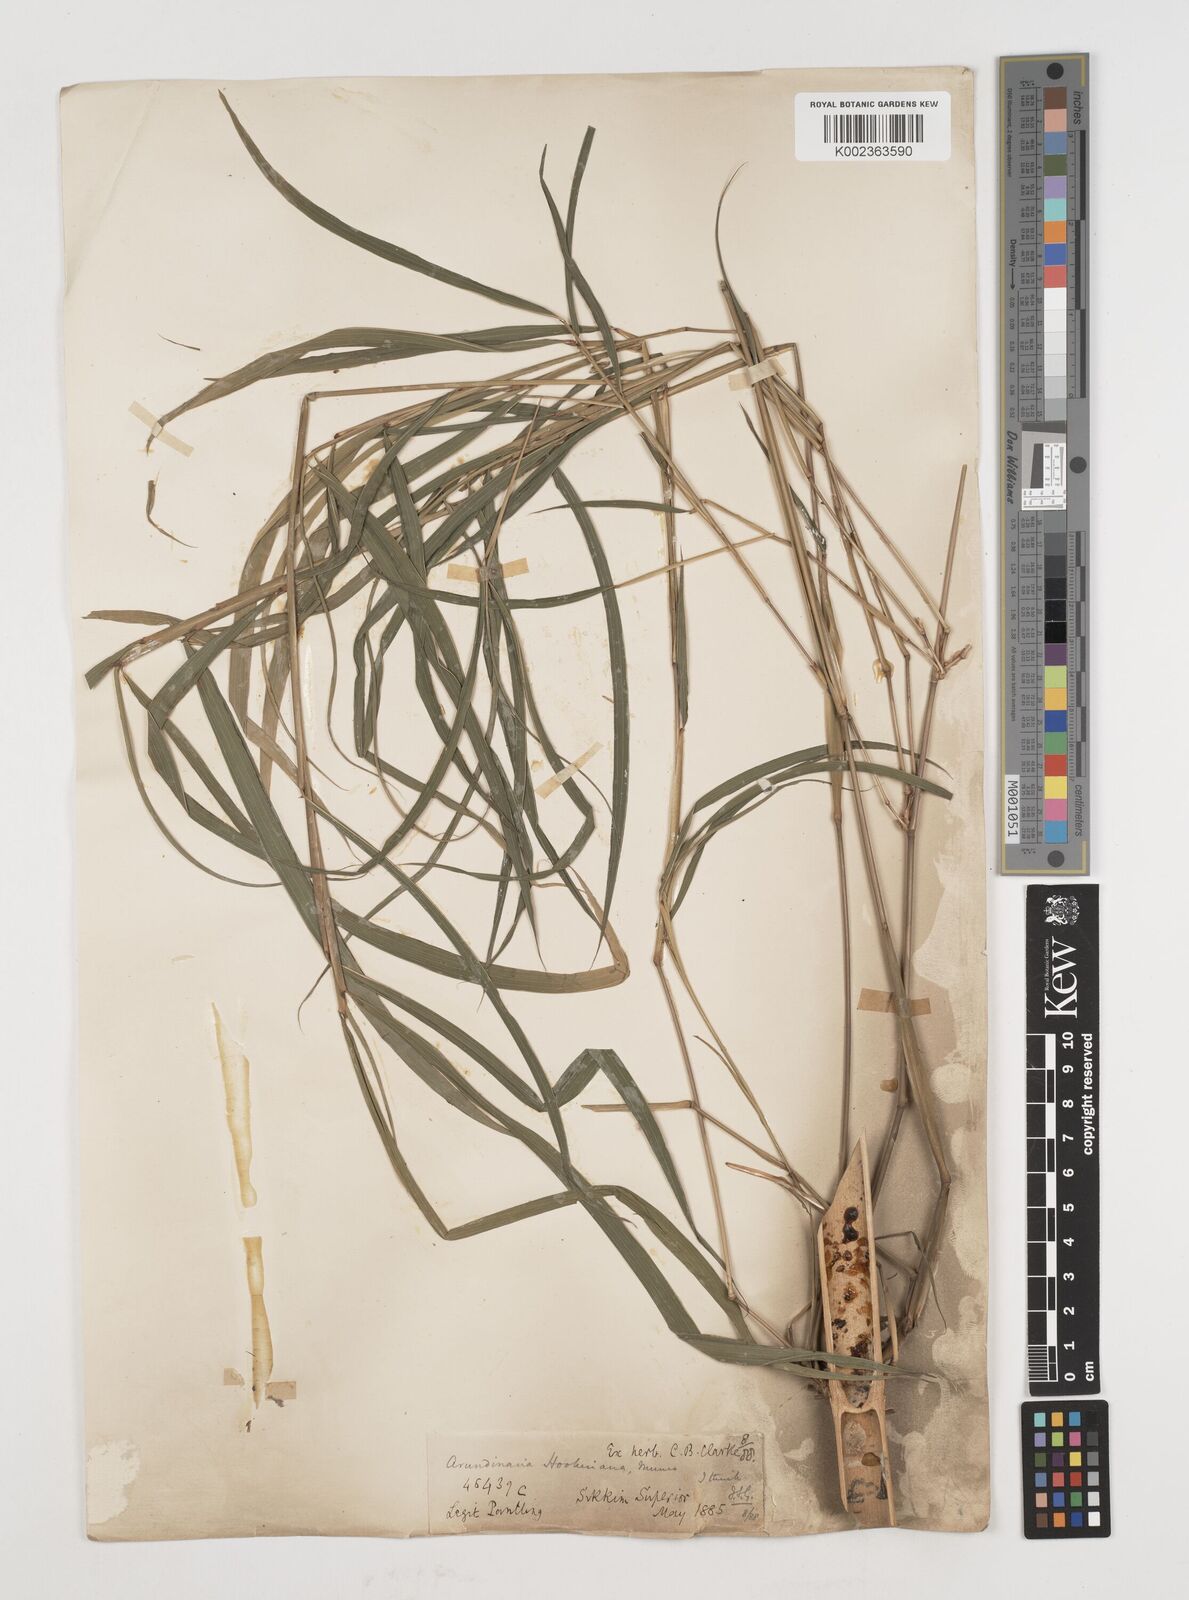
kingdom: Plantae
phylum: Tracheophyta
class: Liliopsida
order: Poales
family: Poaceae
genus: Himalayacalamus
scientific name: Himalayacalamus hookerianus
